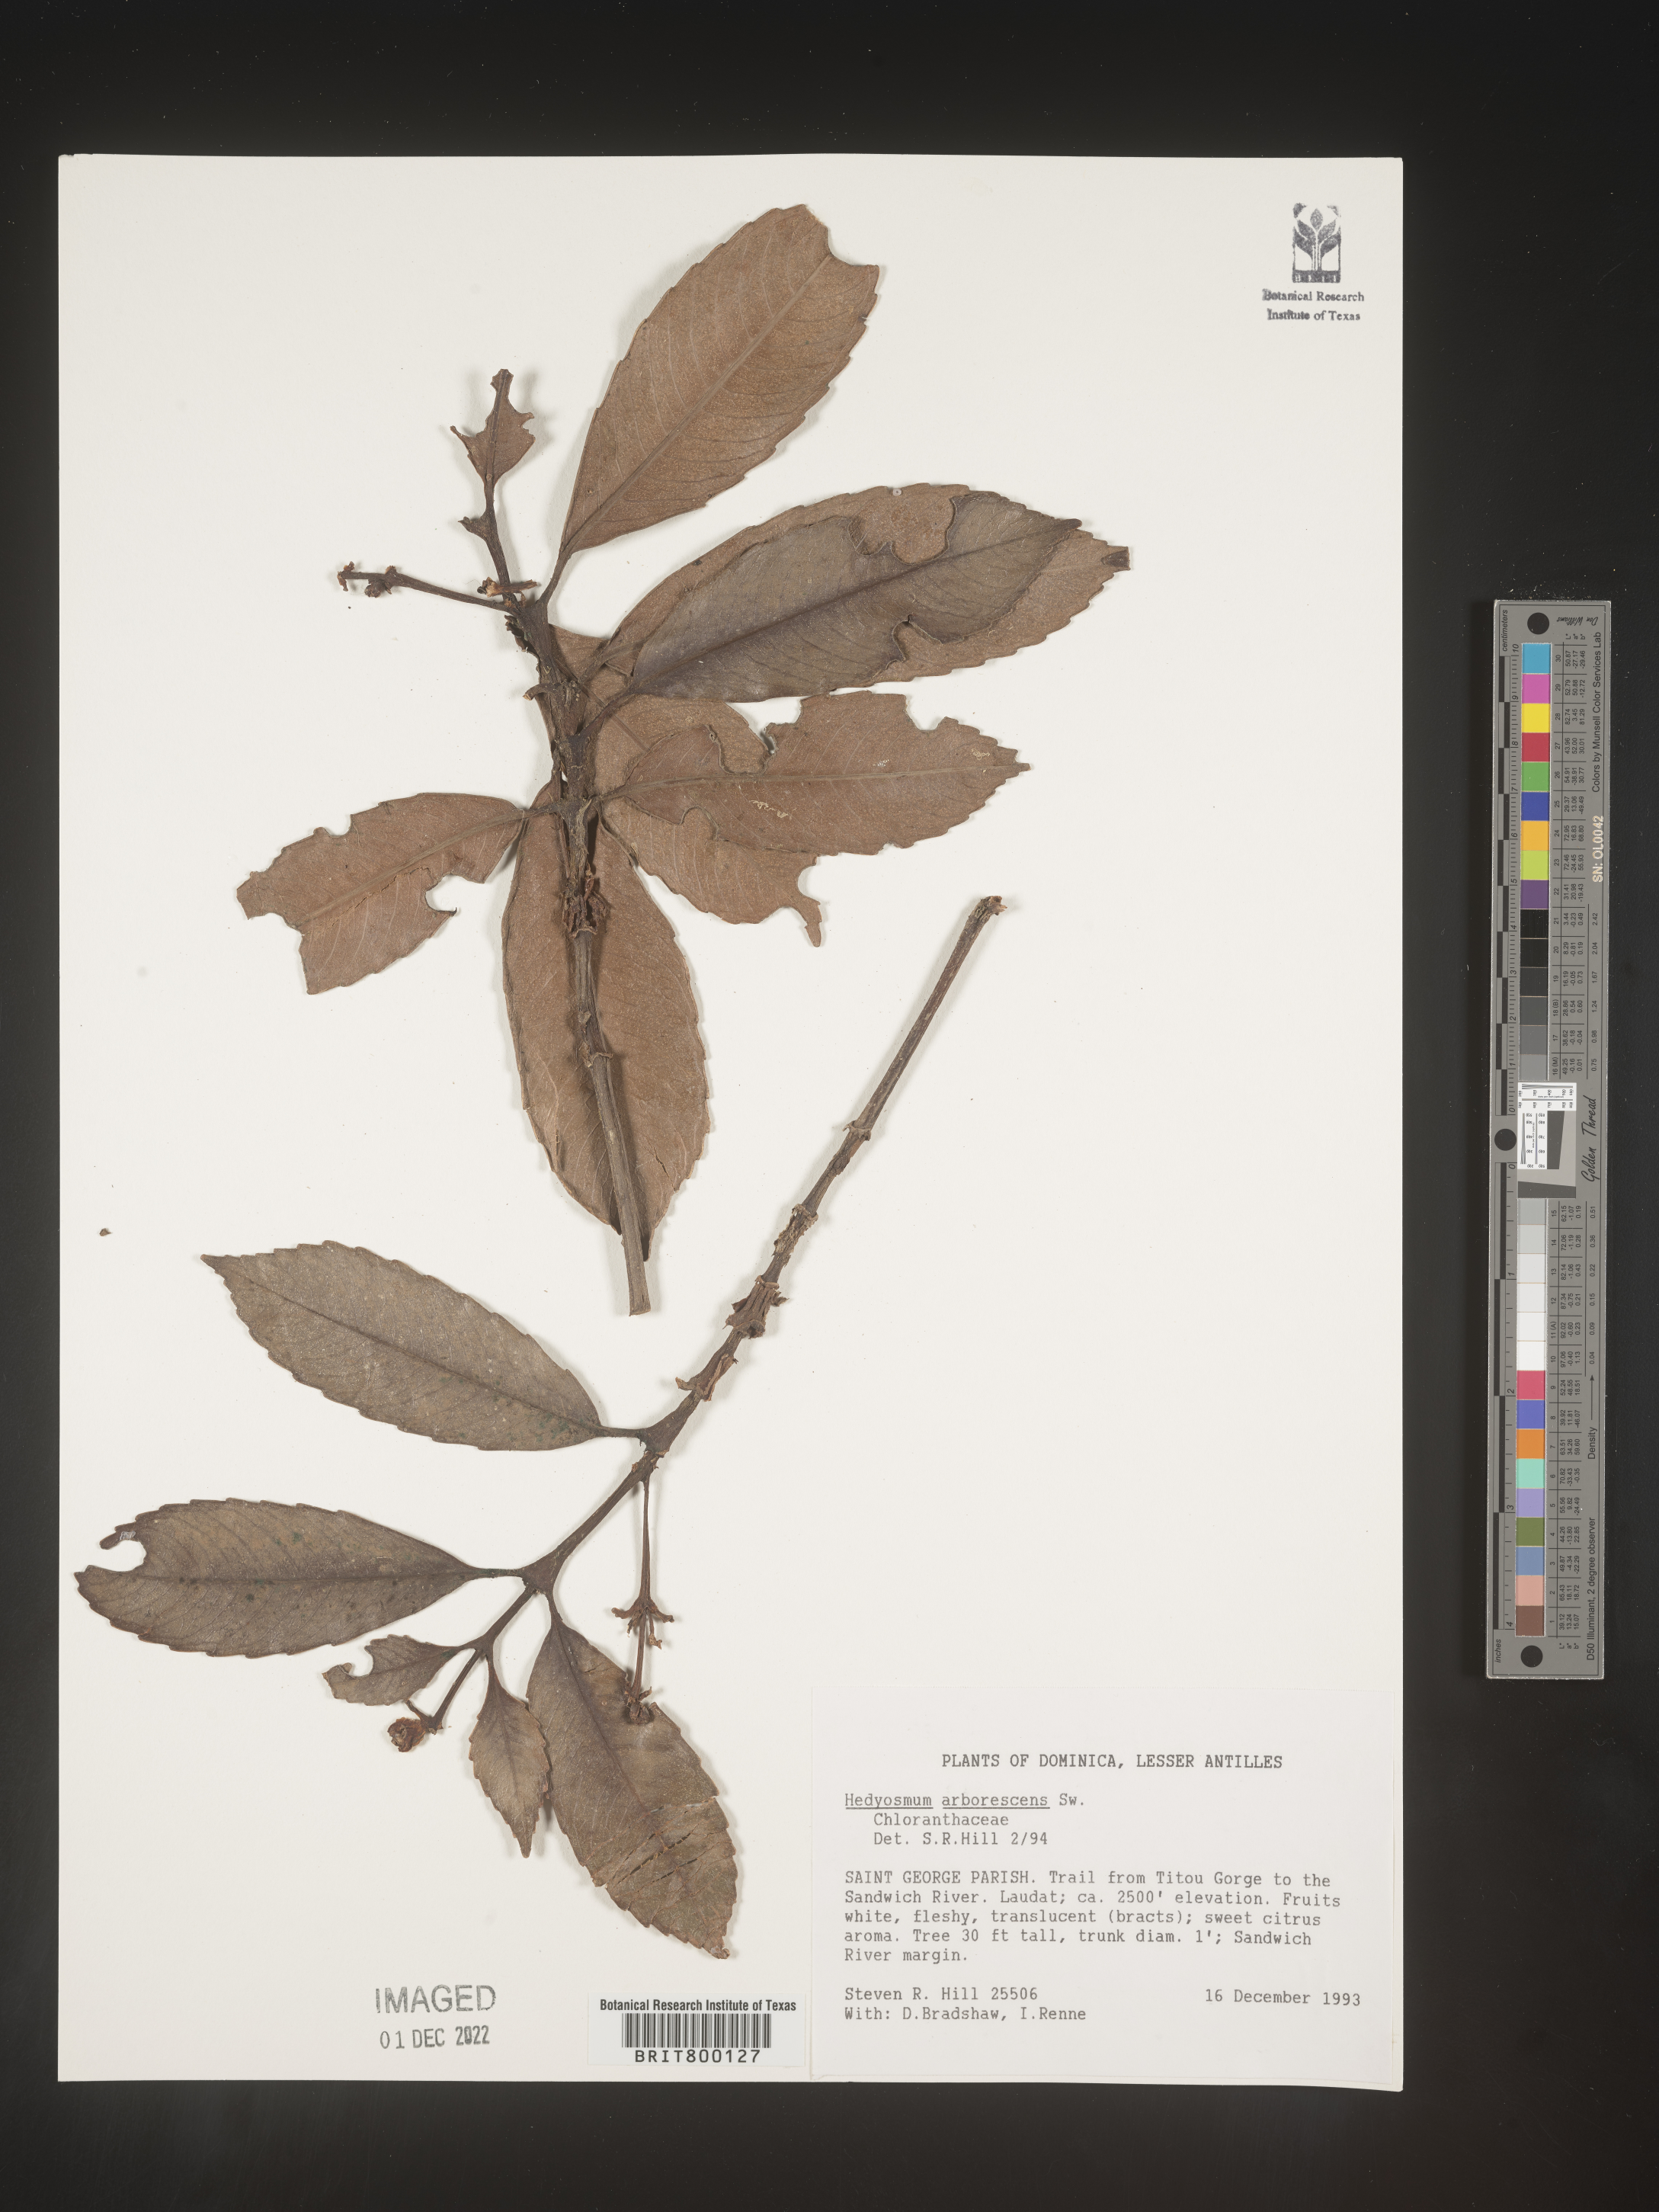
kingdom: Plantae
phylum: Tracheophyta
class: Magnoliopsida
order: Chloranthales
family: Chloranthaceae
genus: Hedyosmum
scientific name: Hedyosmum
